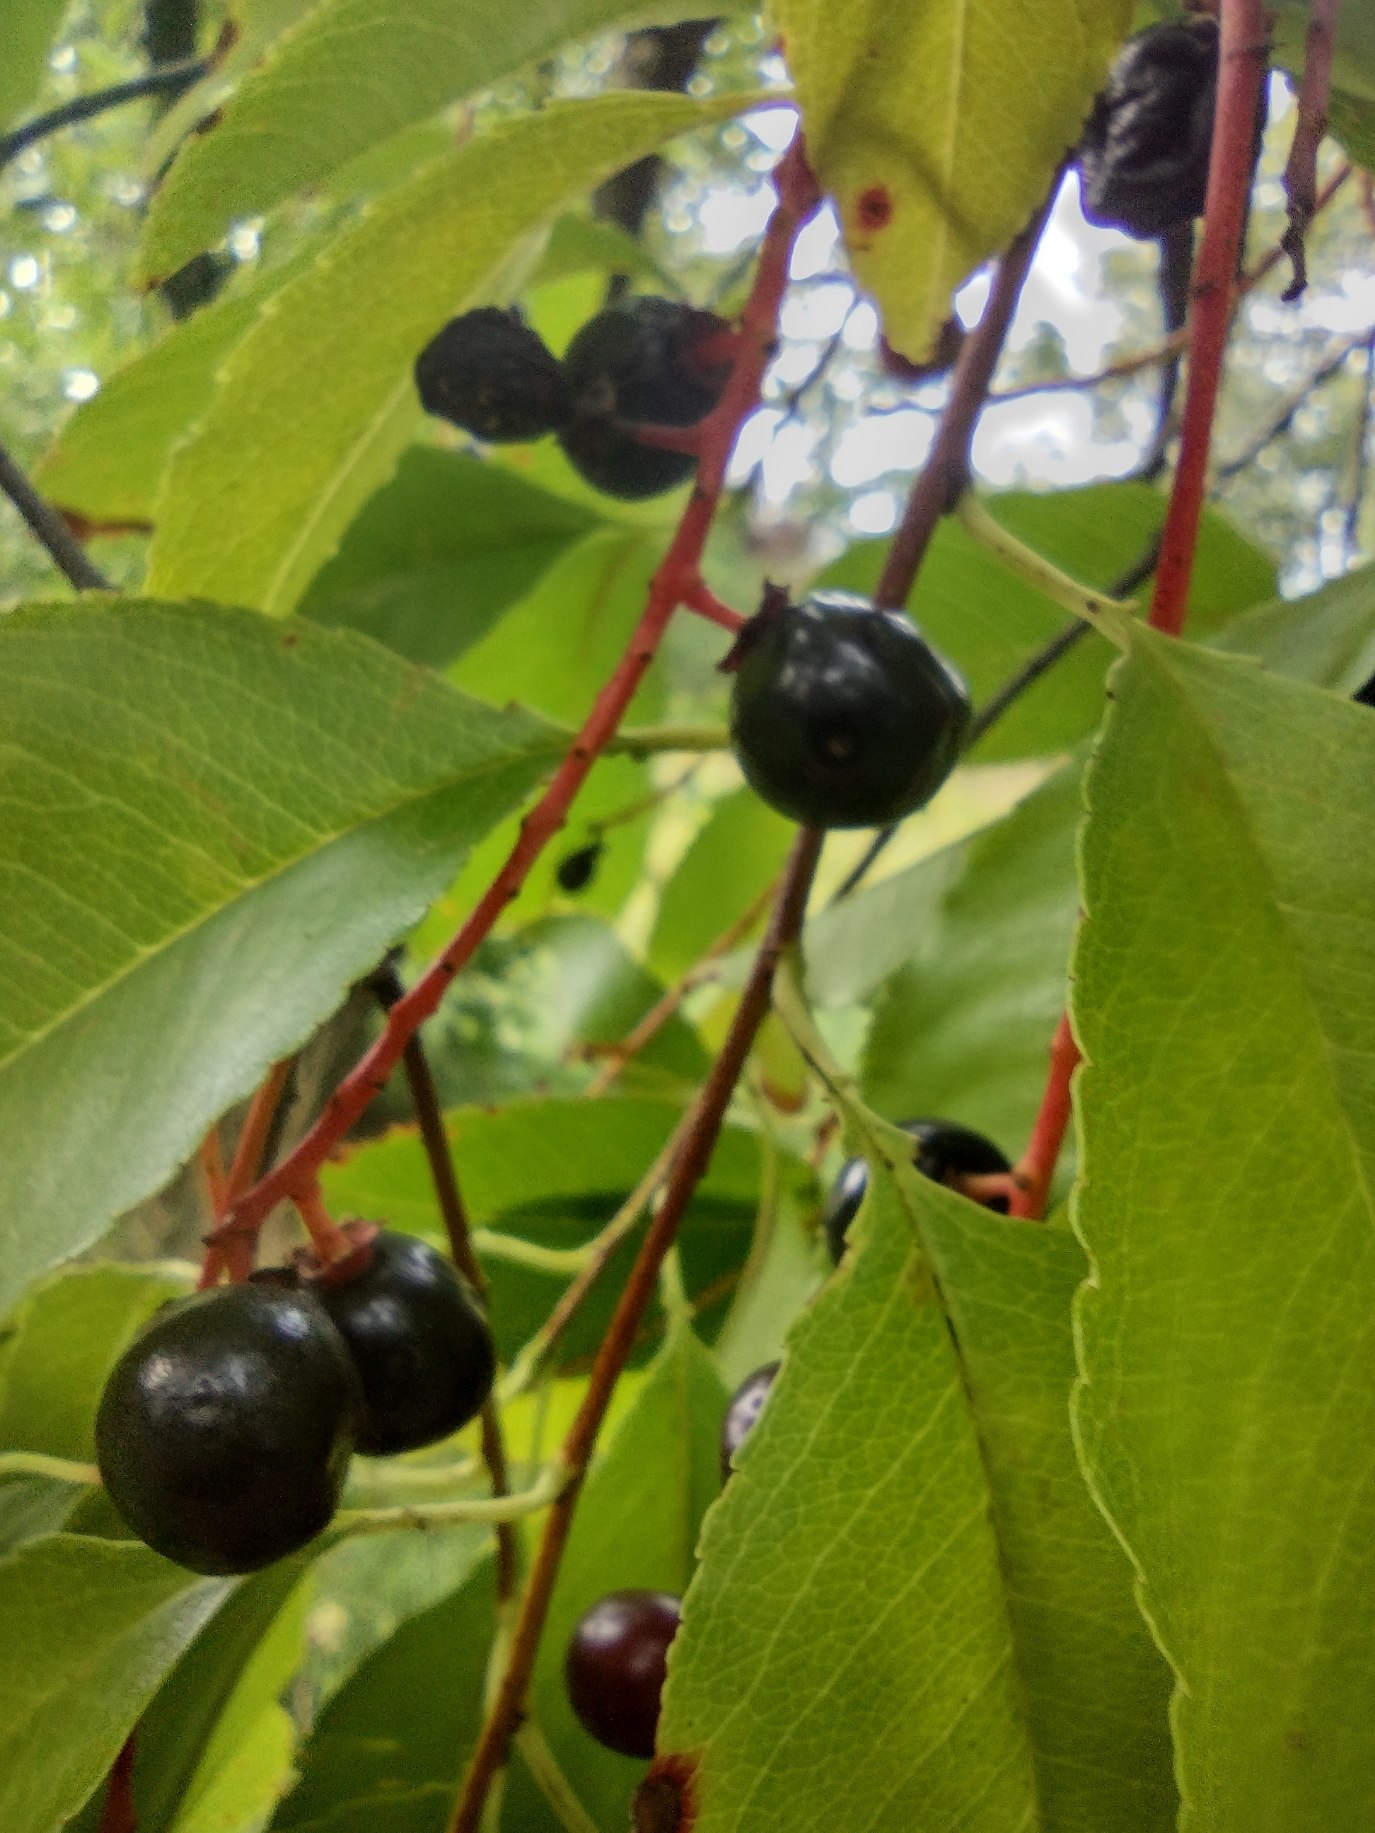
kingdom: Plantae
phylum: Tracheophyta
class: Magnoliopsida
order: Rosales
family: Rosaceae
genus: Prunus
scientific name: Prunus serotina
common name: Glansbladet hæg
